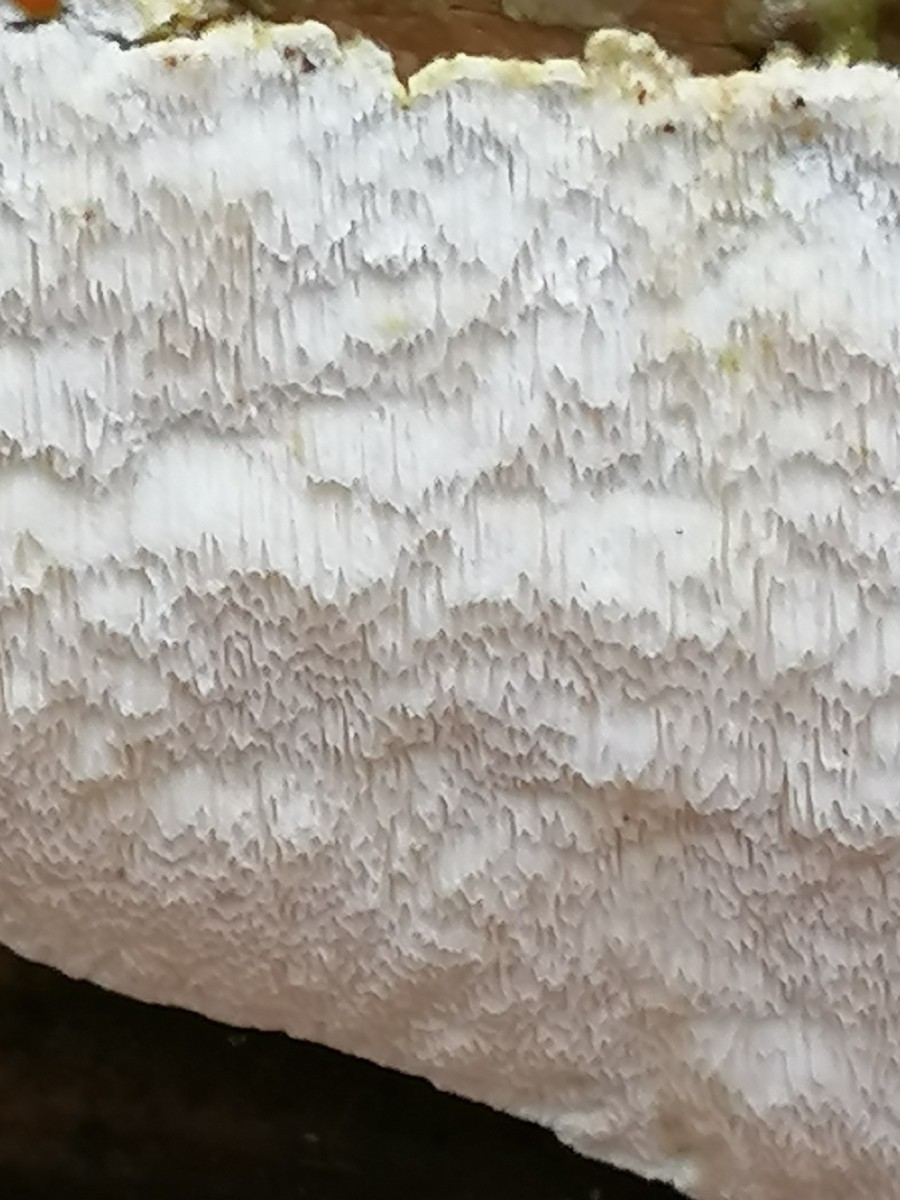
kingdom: Fungi
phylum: Basidiomycota
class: Agaricomycetes
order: Polyporales
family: Gelatoporiaceae
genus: Cinereomyces
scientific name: Cinereomyces lindbladii
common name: almindelig gråporesvamp
